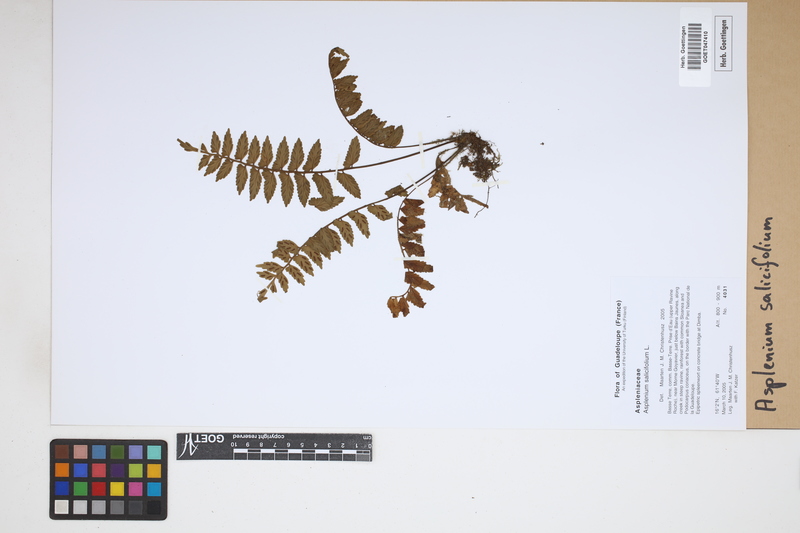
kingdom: Plantae
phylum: Tracheophyta
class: Polypodiopsida
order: Polypodiales
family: Aspleniaceae
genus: Asplenium
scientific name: Asplenium salicifolium
